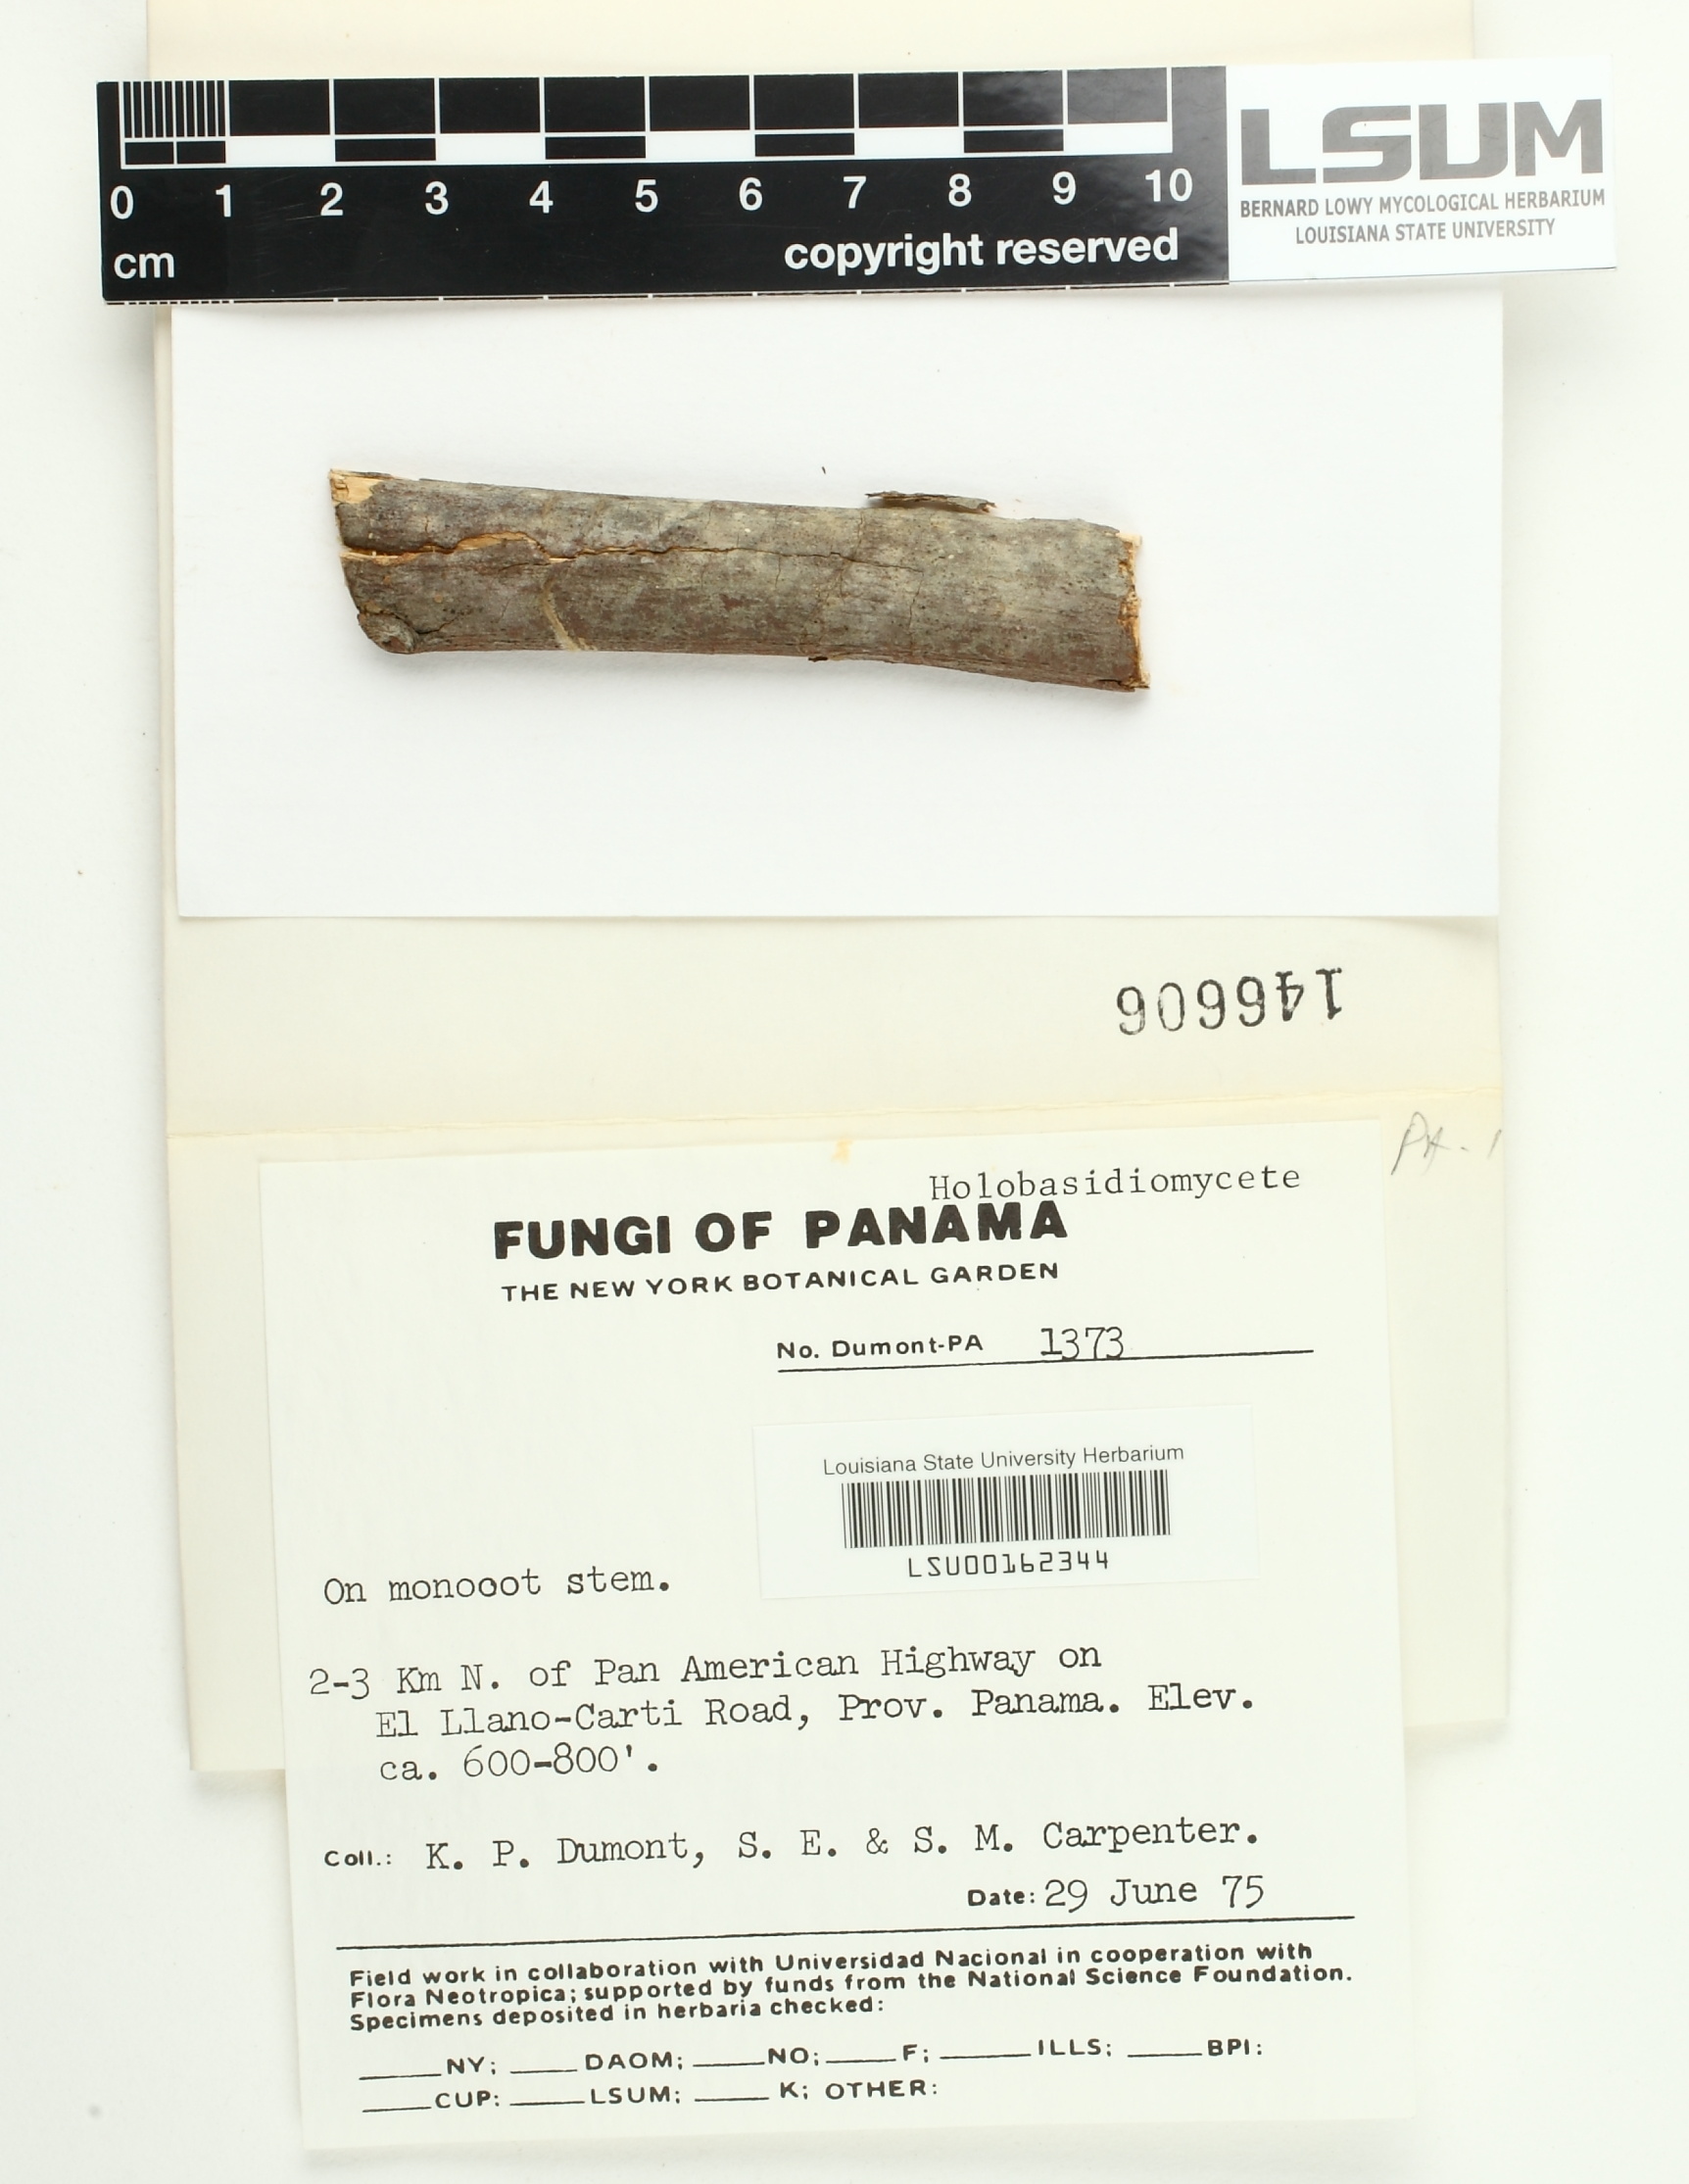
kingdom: Fungi
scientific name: Fungi
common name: Fungi
